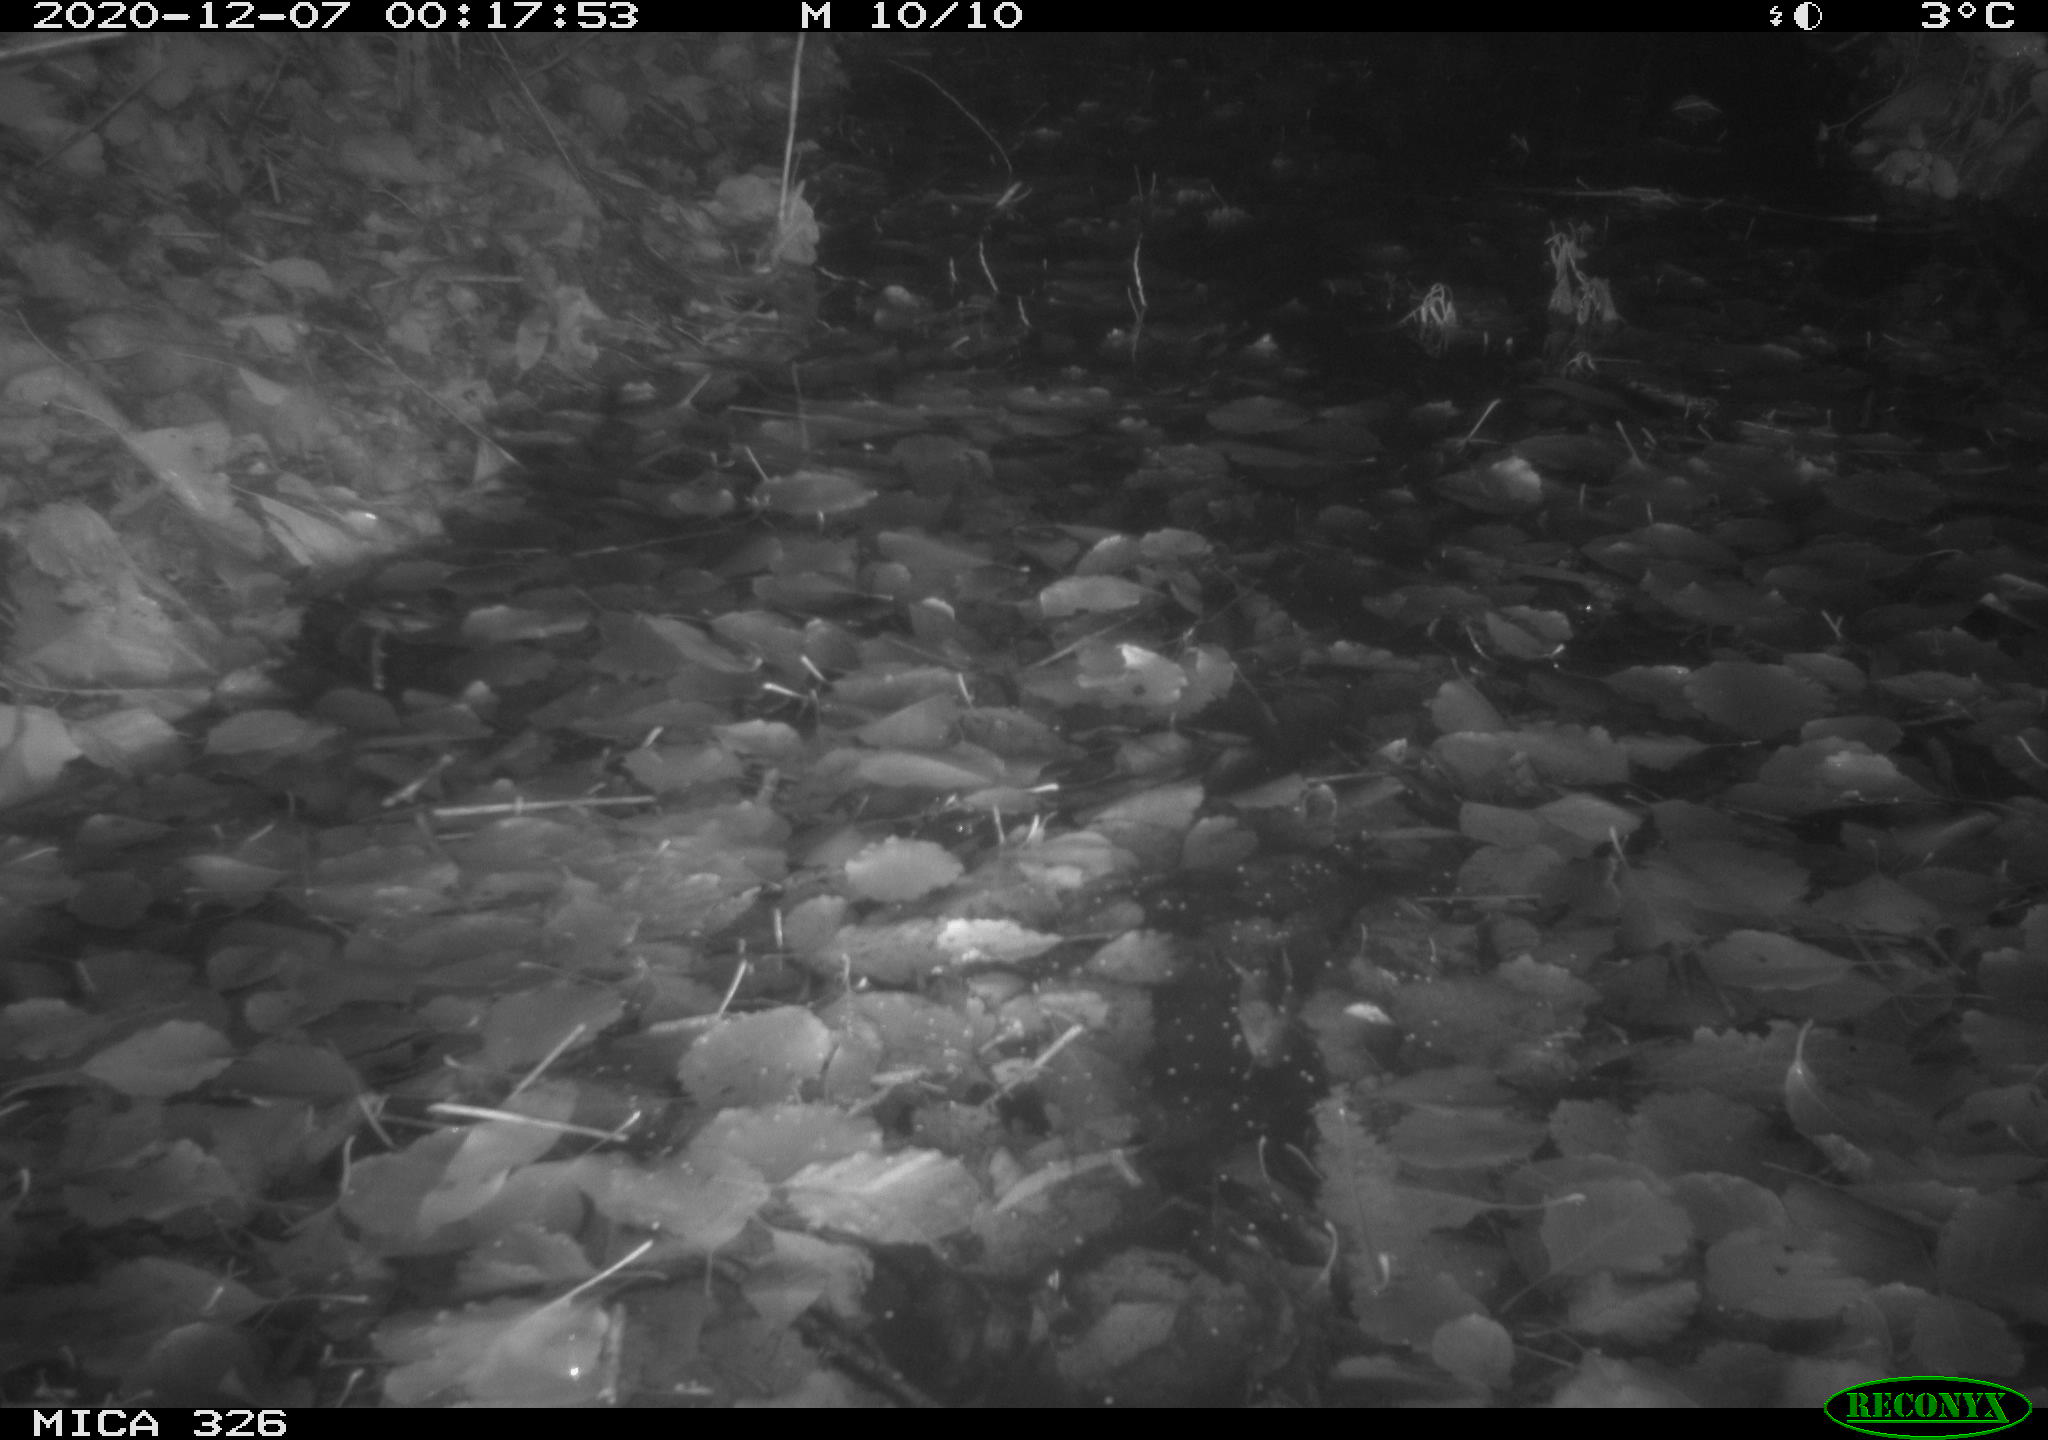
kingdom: Animalia
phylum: Chordata
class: Mammalia
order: Carnivora
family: Mustelidae
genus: Lutra
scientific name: Lutra lutra
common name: European otter
